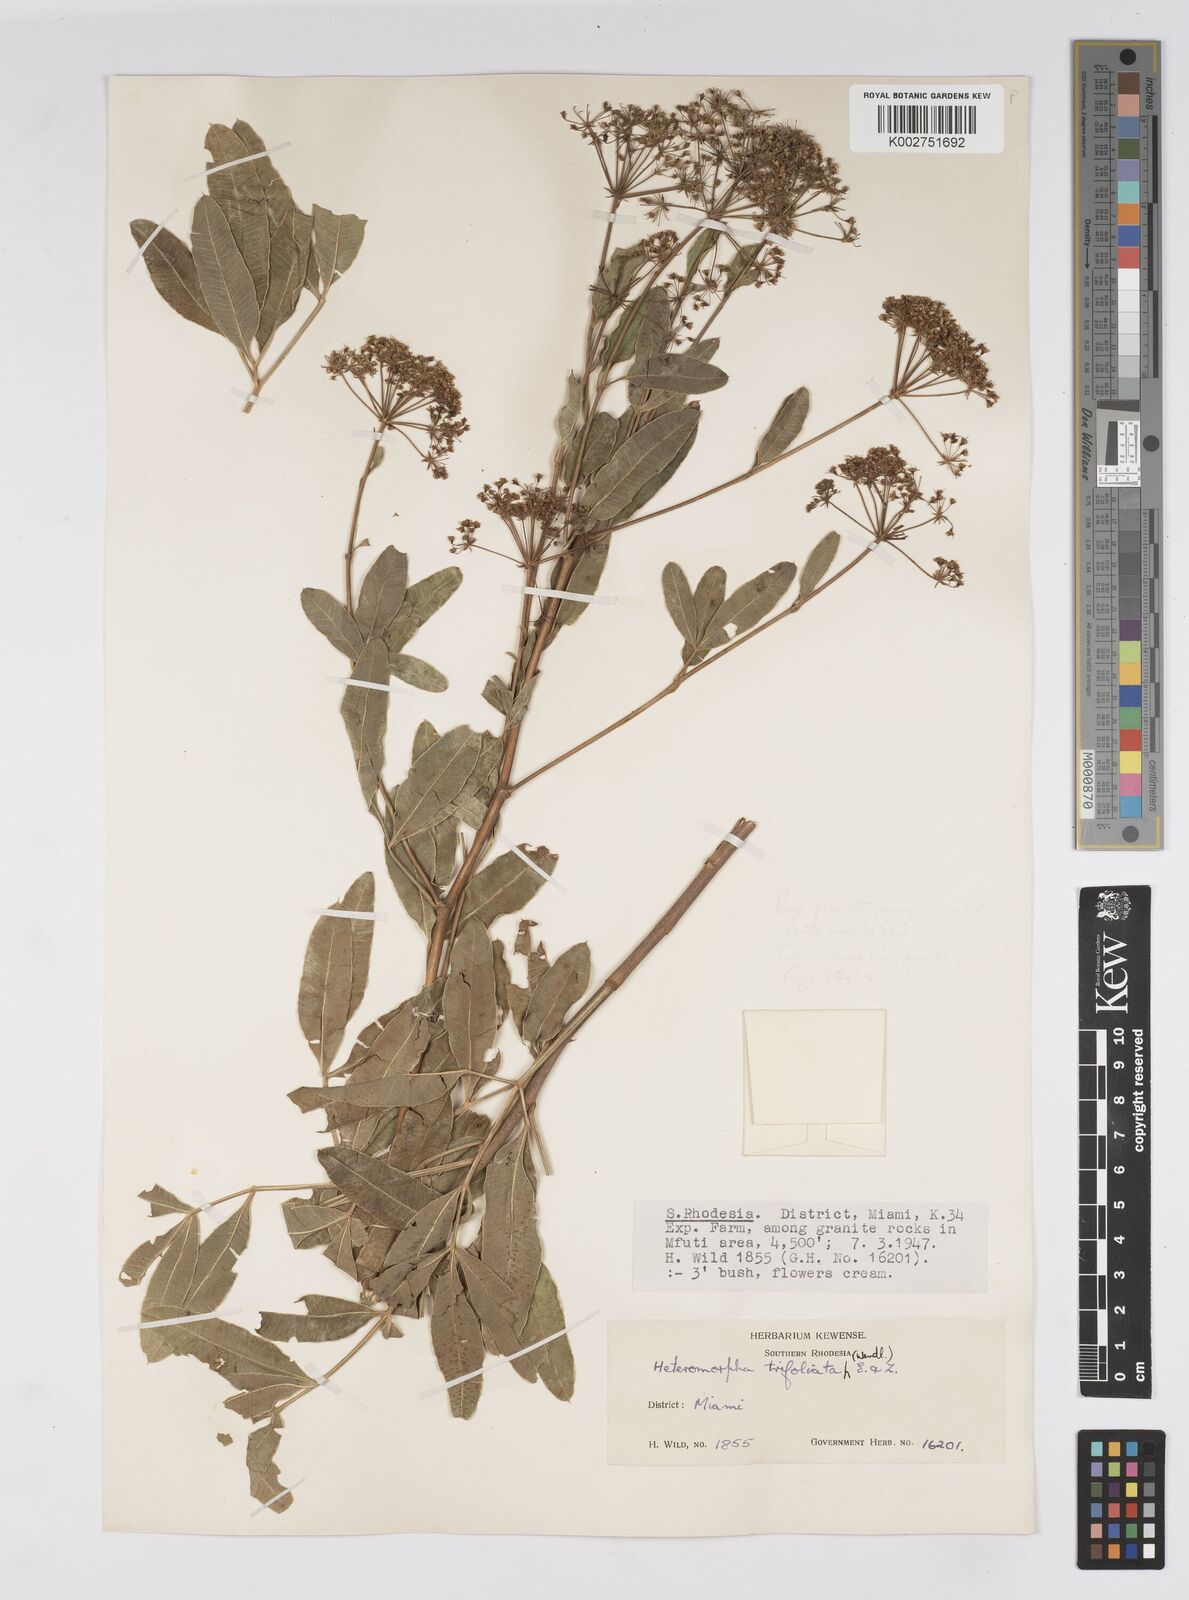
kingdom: Plantae
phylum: Tracheophyta
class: Magnoliopsida
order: Apiales
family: Apiaceae
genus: Heteromorpha
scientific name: Heteromorpha stenophylla
